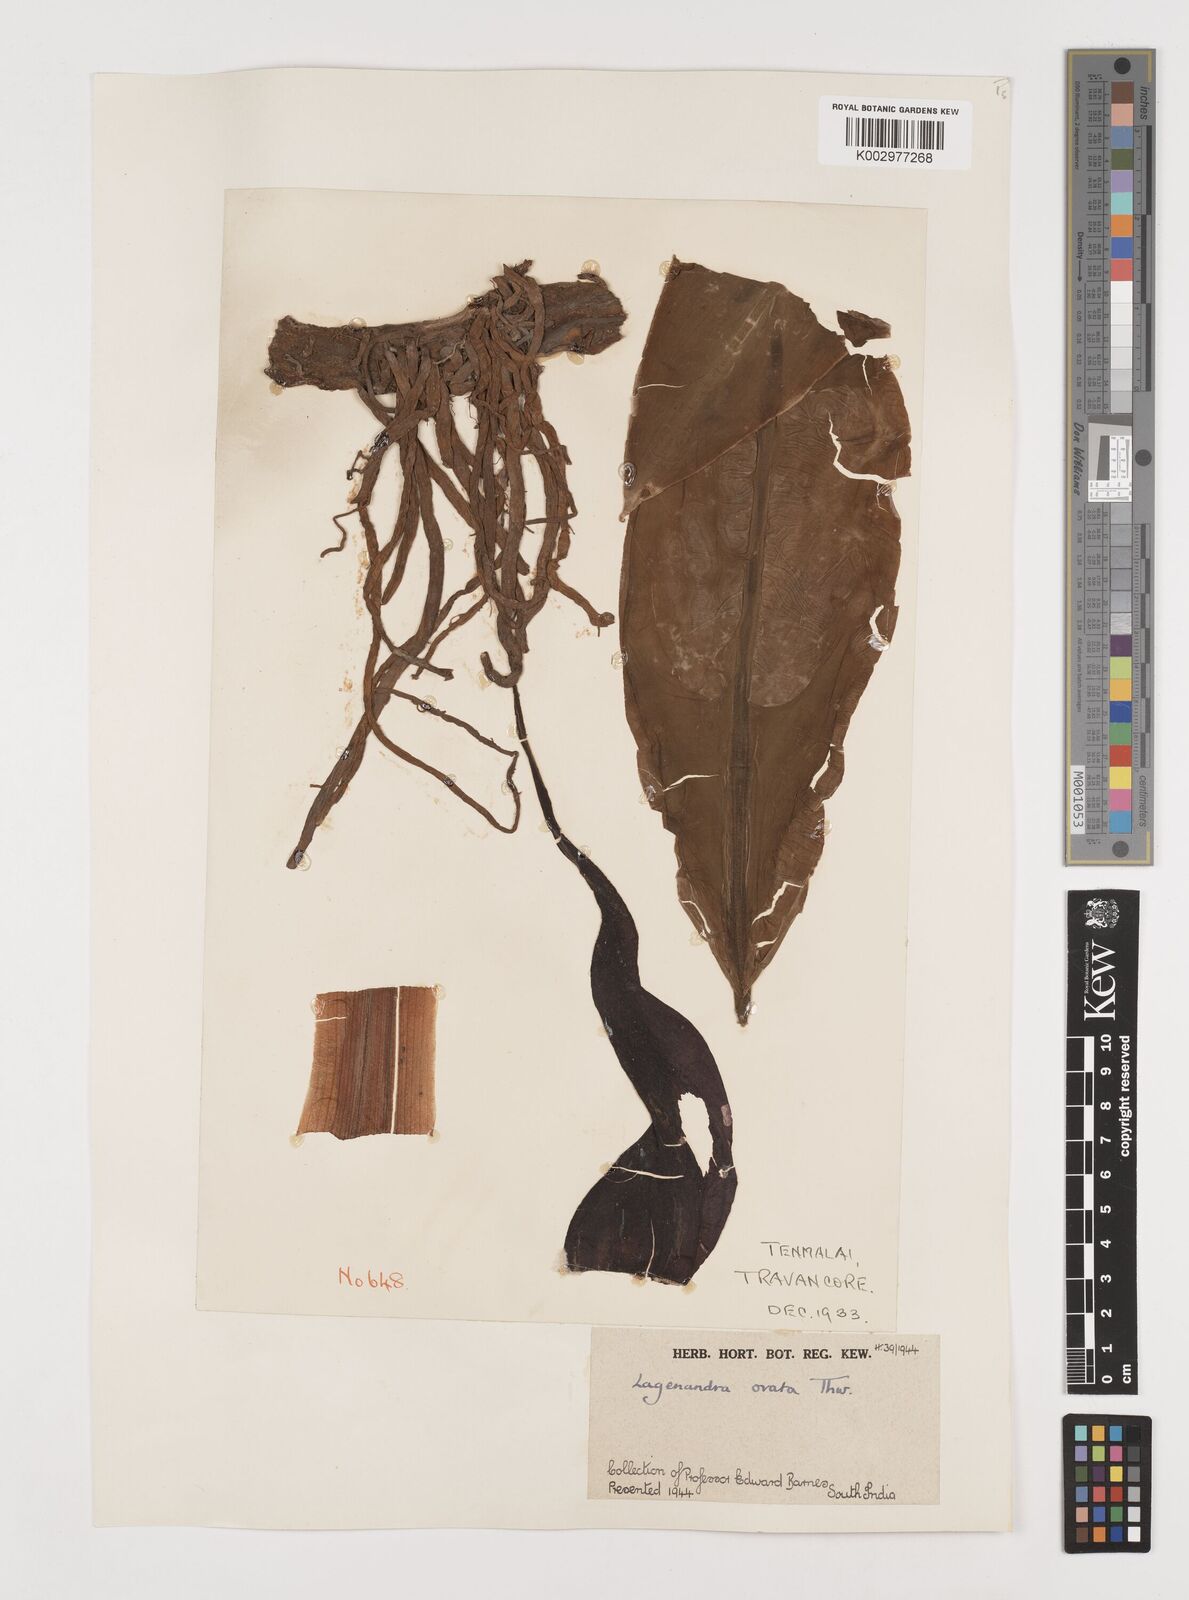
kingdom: Plantae
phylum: Tracheophyta
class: Liliopsida
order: Alismatales
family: Araceae
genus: Lagenandra
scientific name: Lagenandra ovata
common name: Malayan sword
